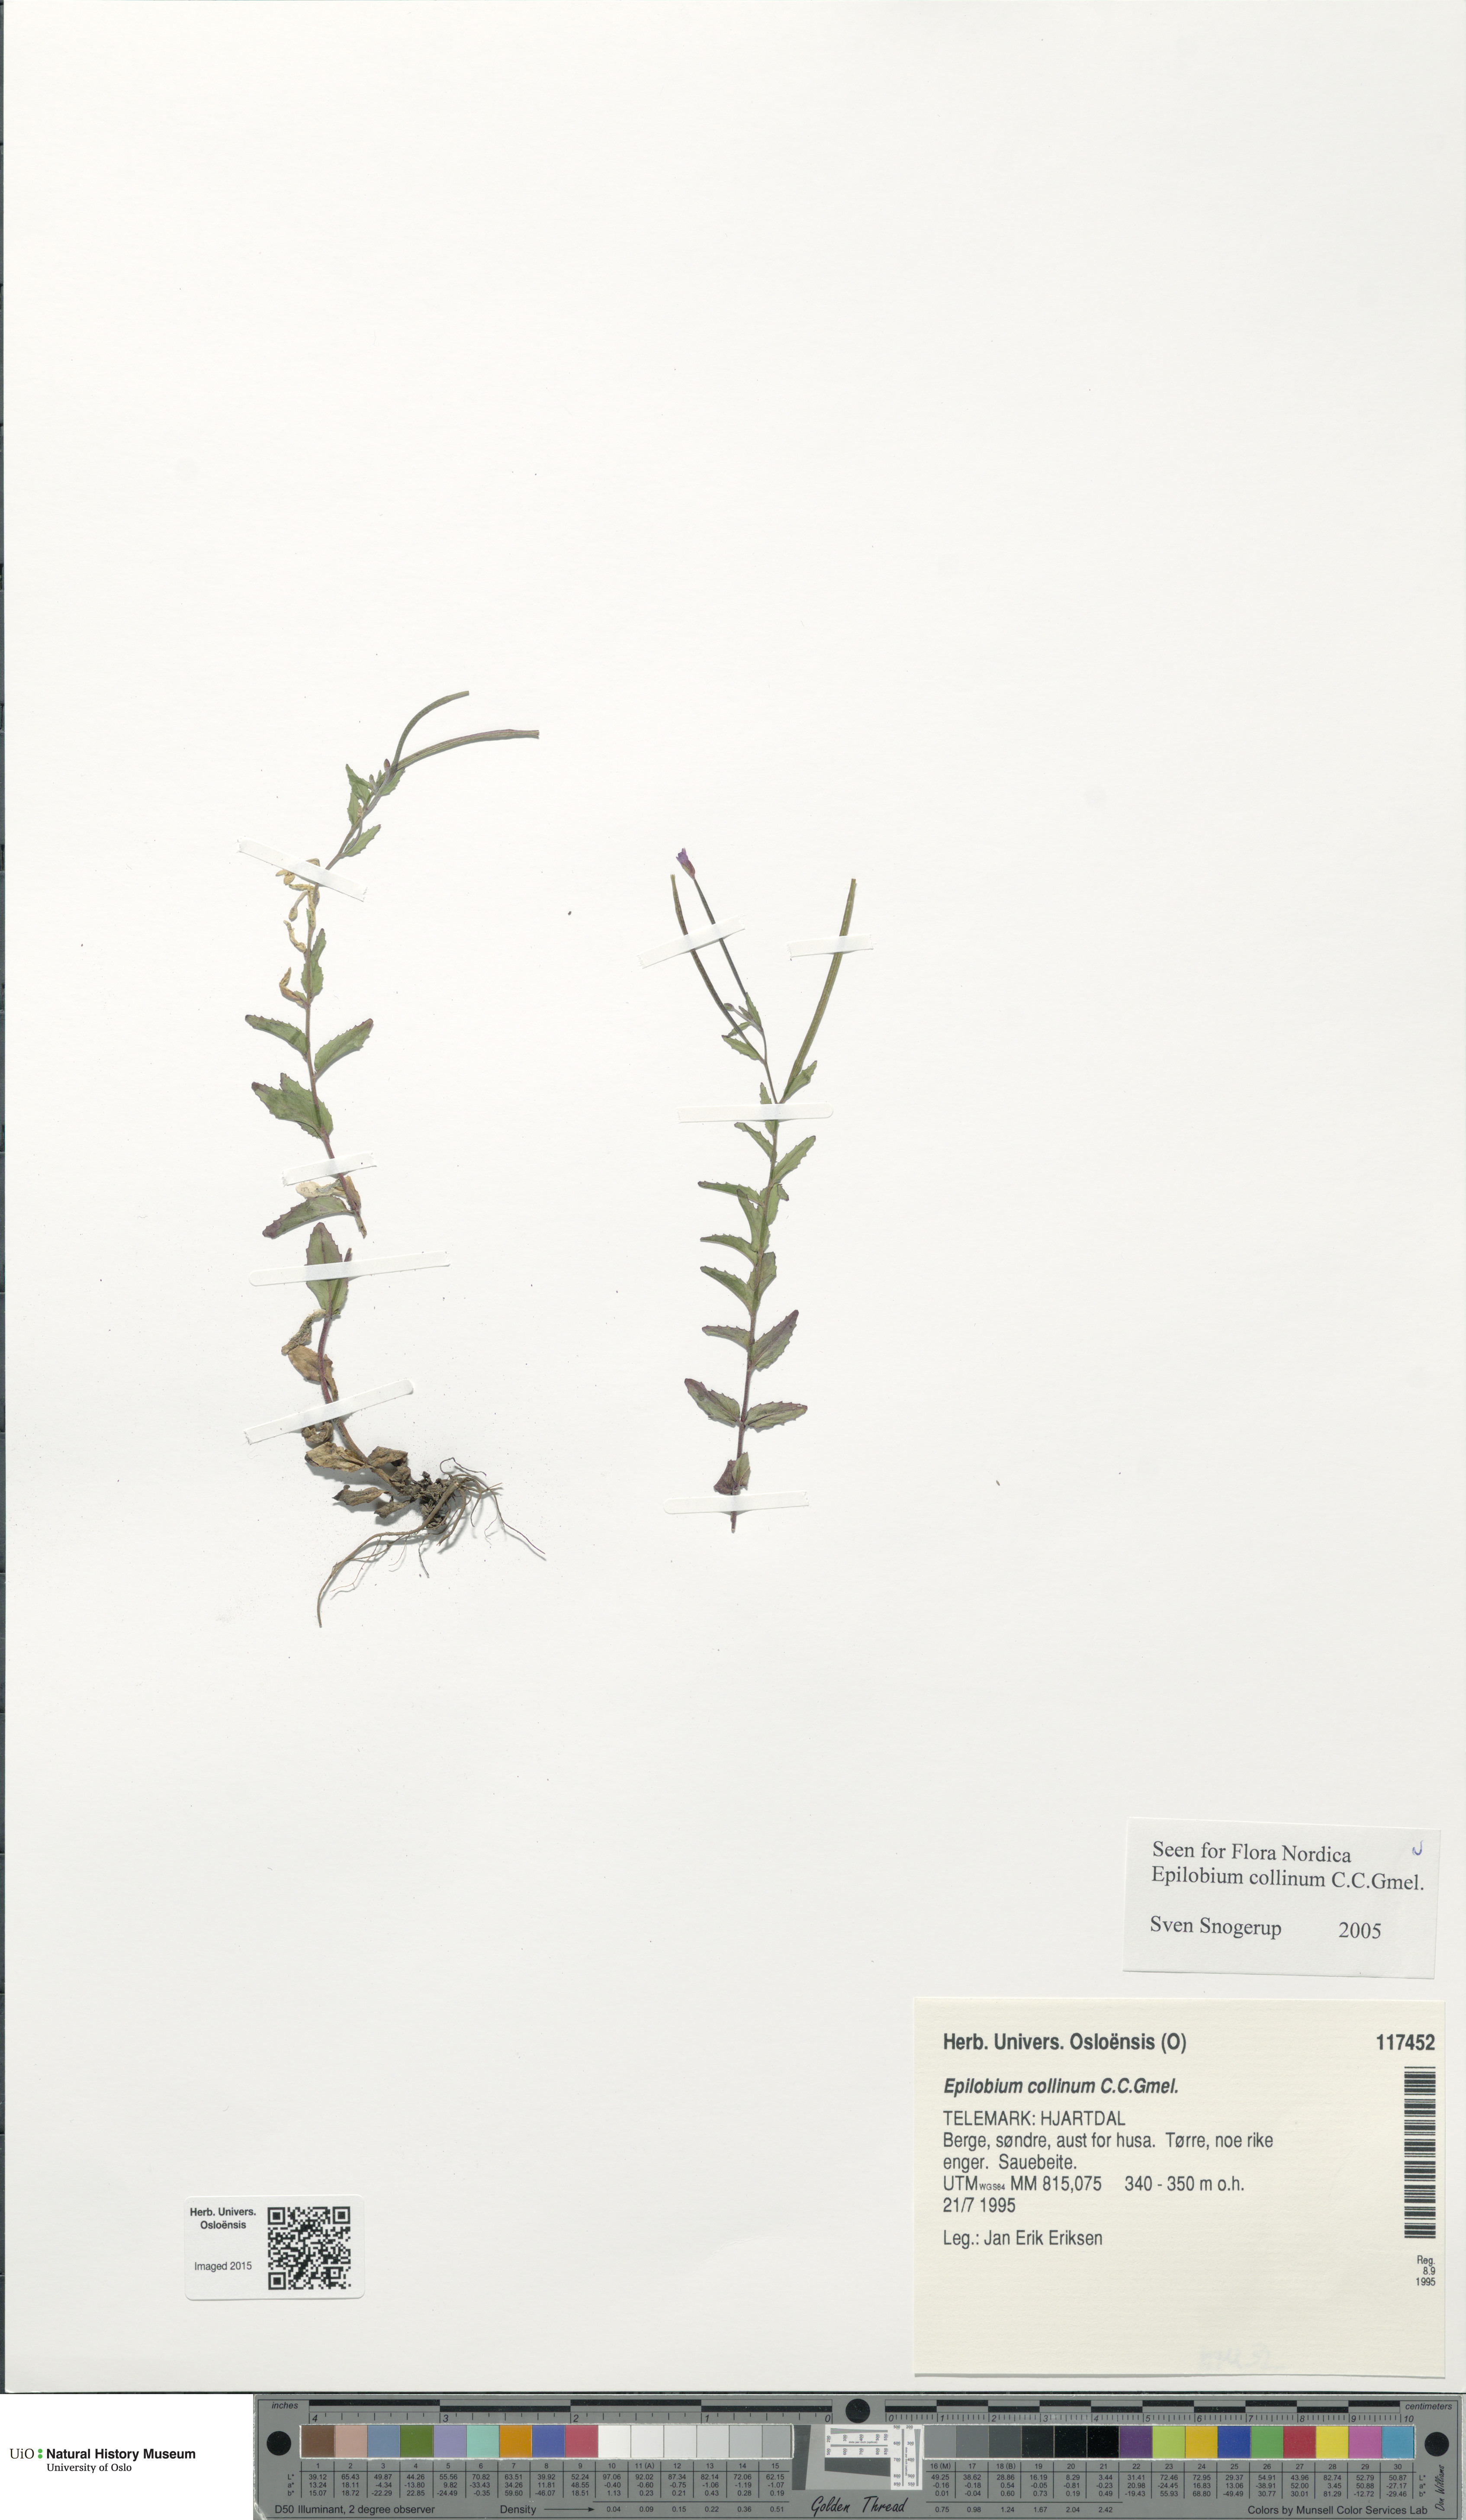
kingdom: Plantae
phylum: Tracheophyta
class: Magnoliopsida
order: Myrtales
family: Onagraceae
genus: Epilobium
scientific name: Epilobium collinum
